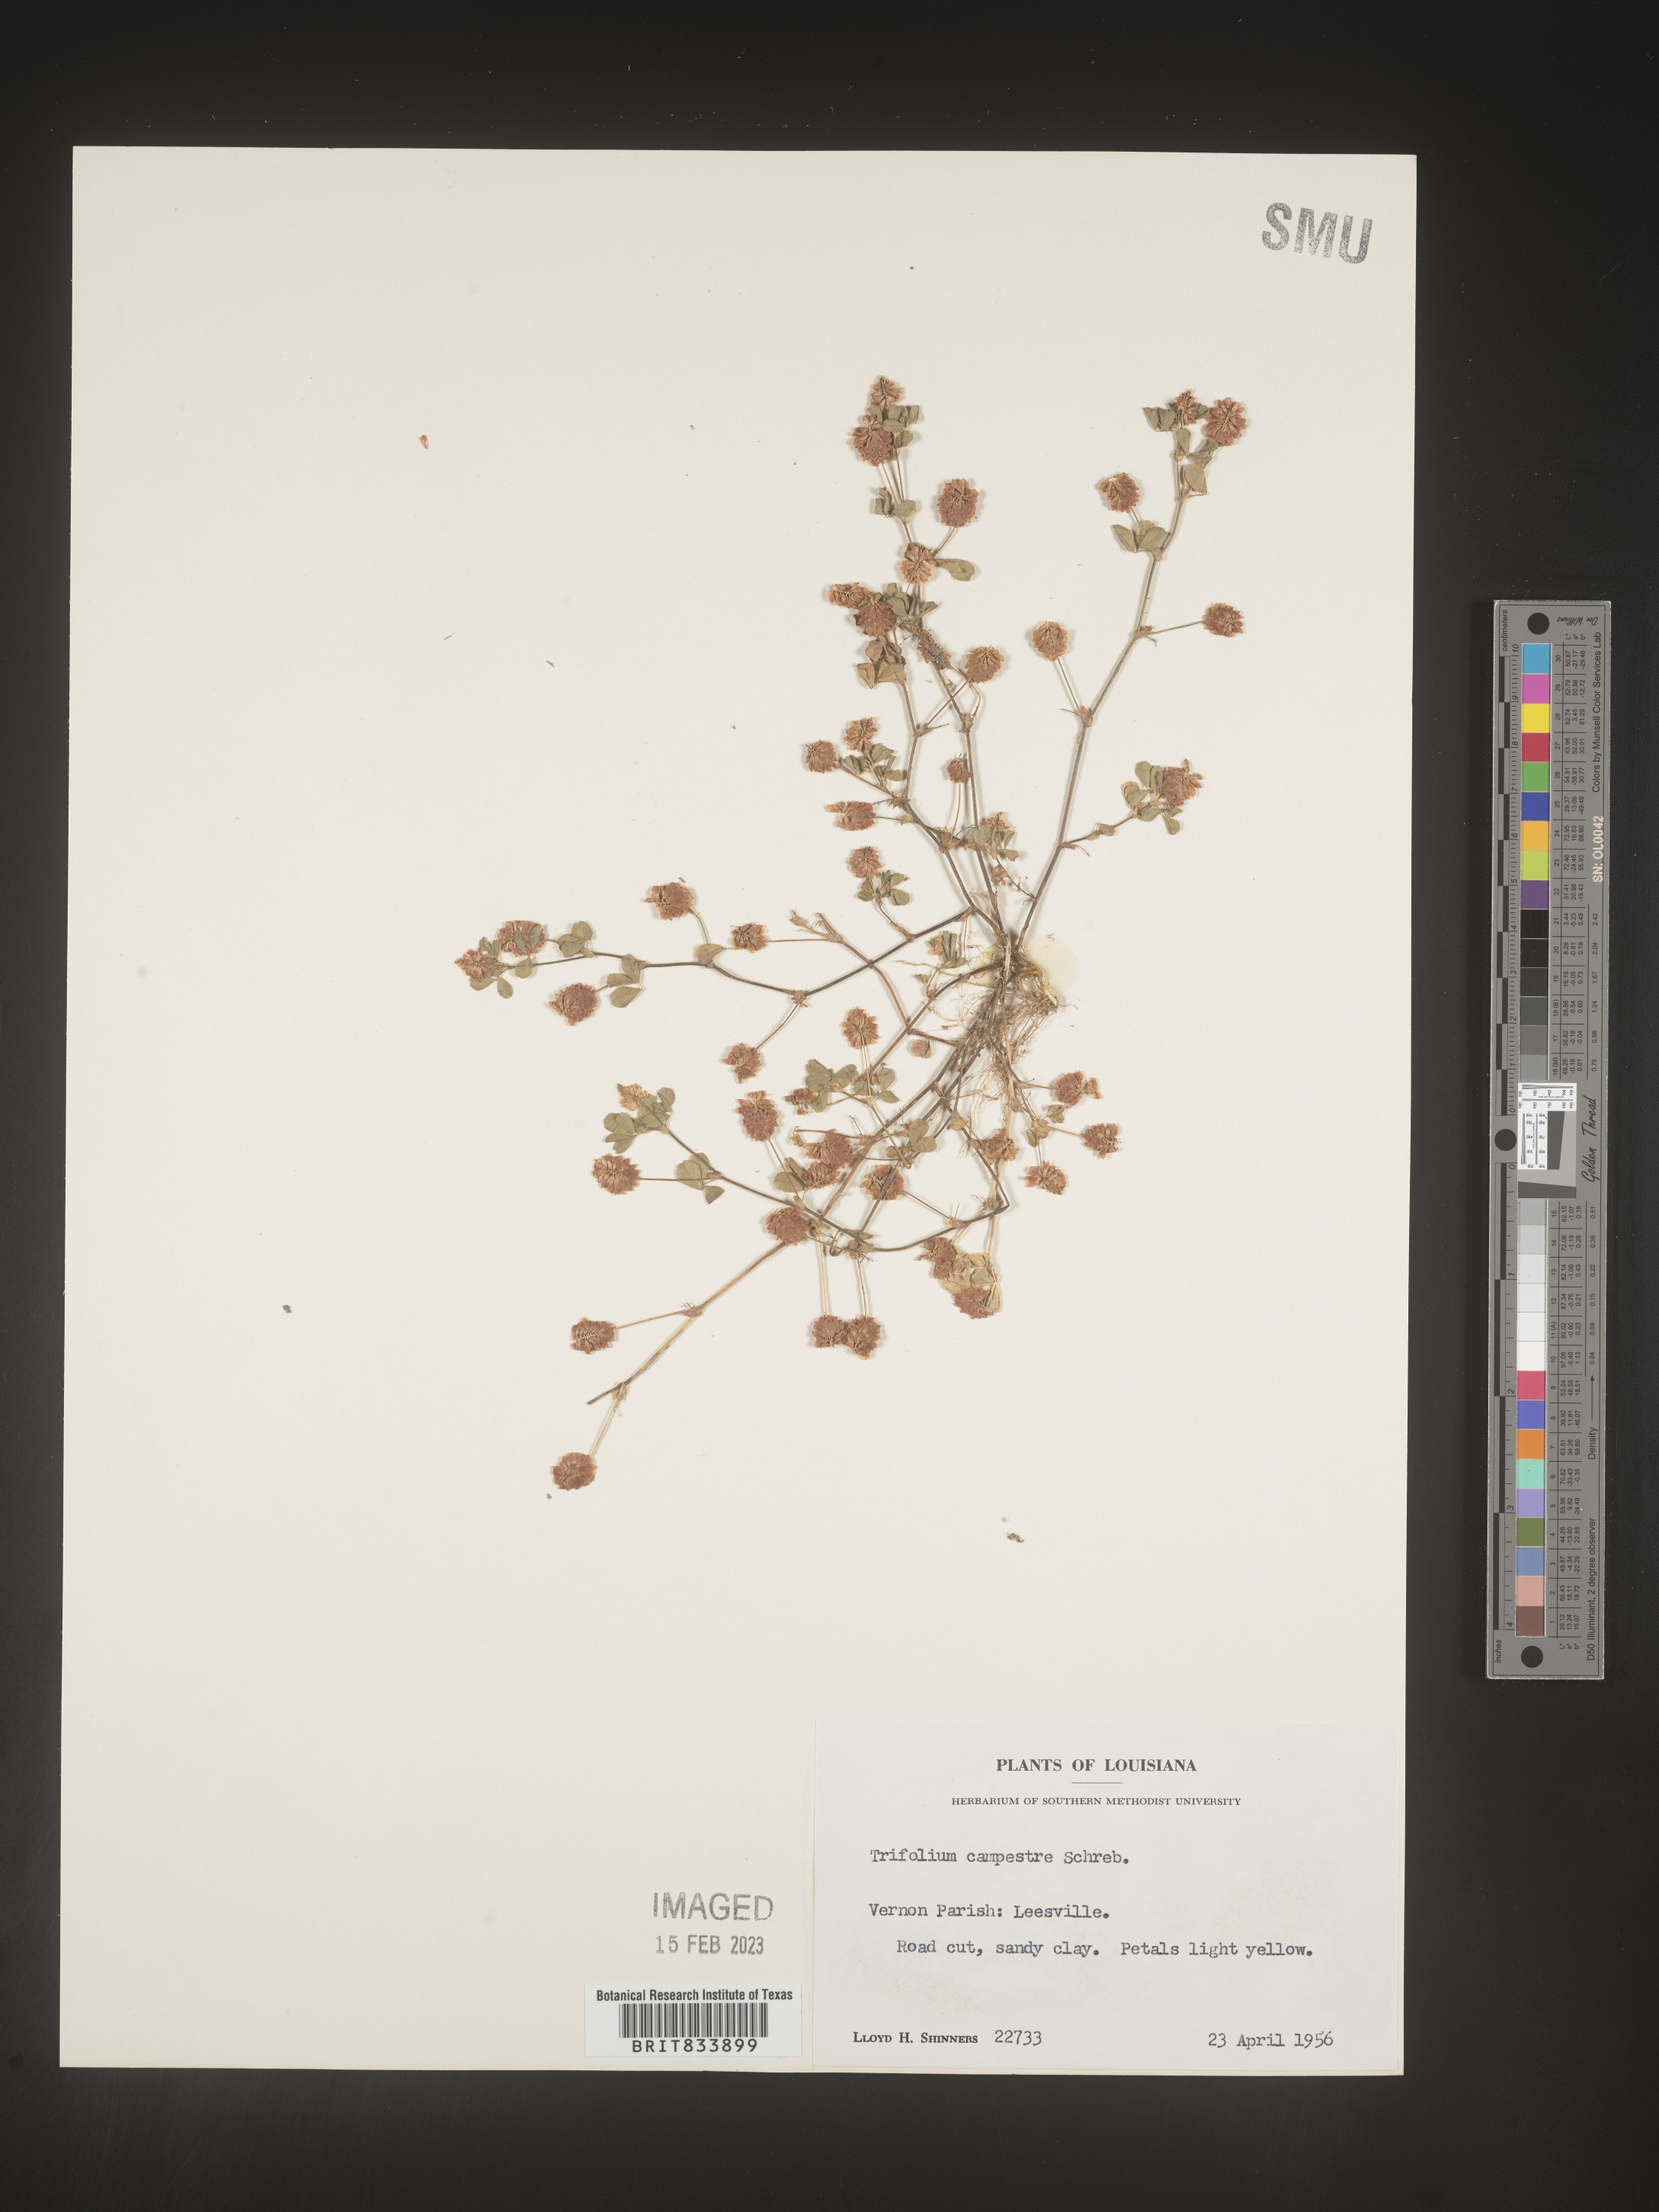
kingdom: Plantae
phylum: Tracheophyta
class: Magnoliopsida
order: Fabales
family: Fabaceae
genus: Trifolium
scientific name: Trifolium campestre
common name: Field clover
